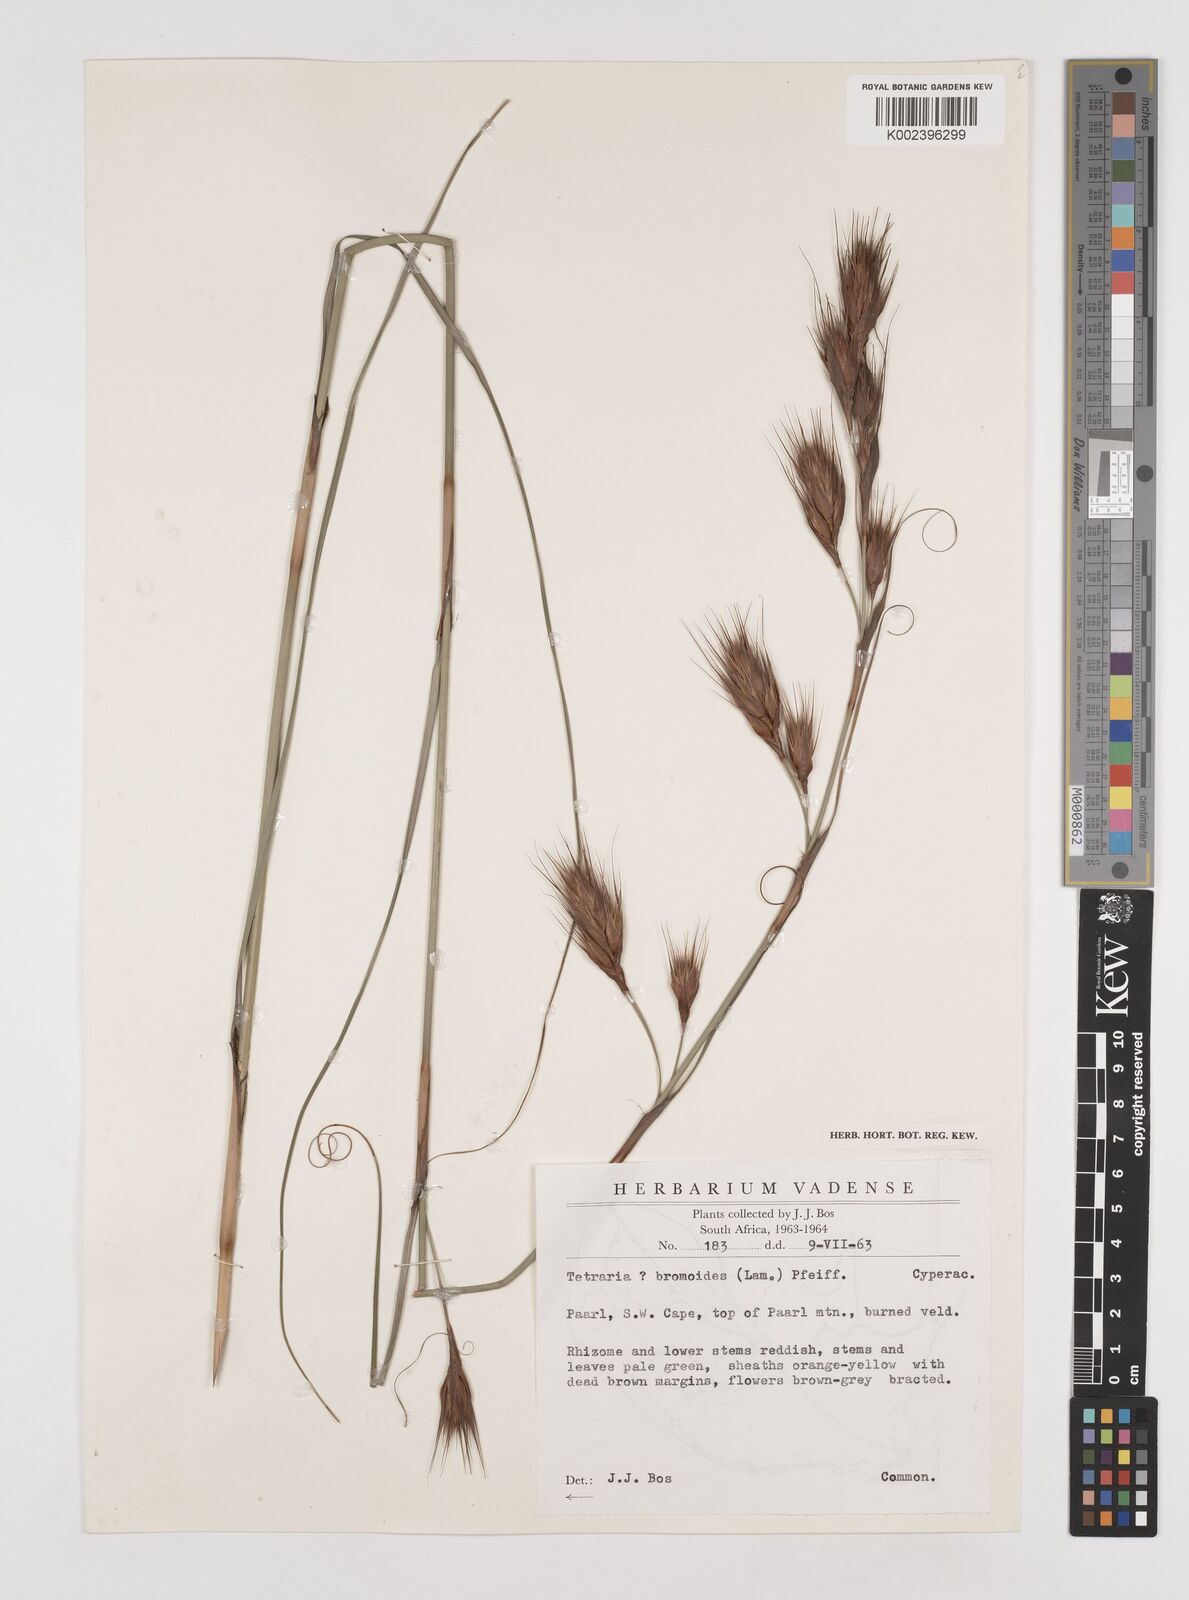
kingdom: Plantae
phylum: Tracheophyta
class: Liliopsida
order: Poales
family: Cyperaceae
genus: Tetraria
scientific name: Tetraria bromoides
